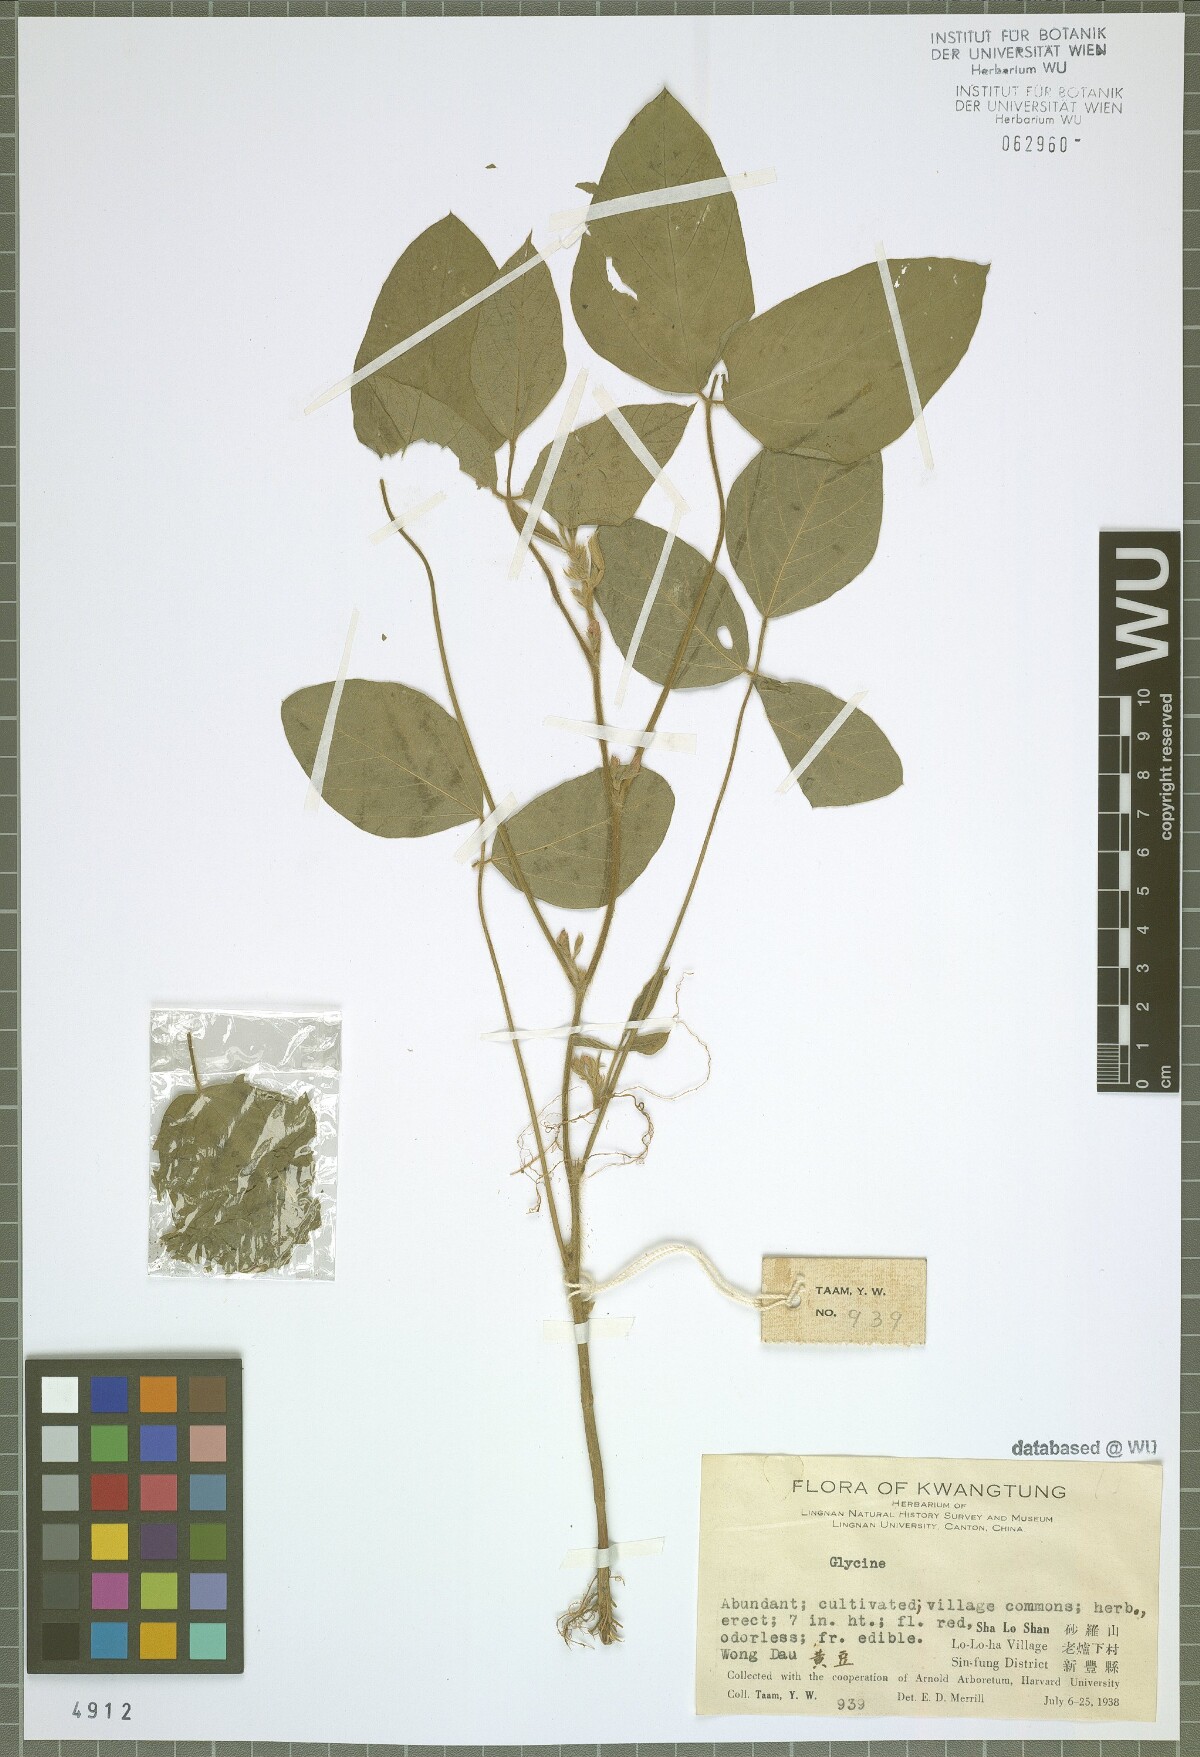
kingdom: Plantae
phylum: Tracheophyta
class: Magnoliopsida
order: Fabales
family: Fabaceae
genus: Glycine
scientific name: Glycine
